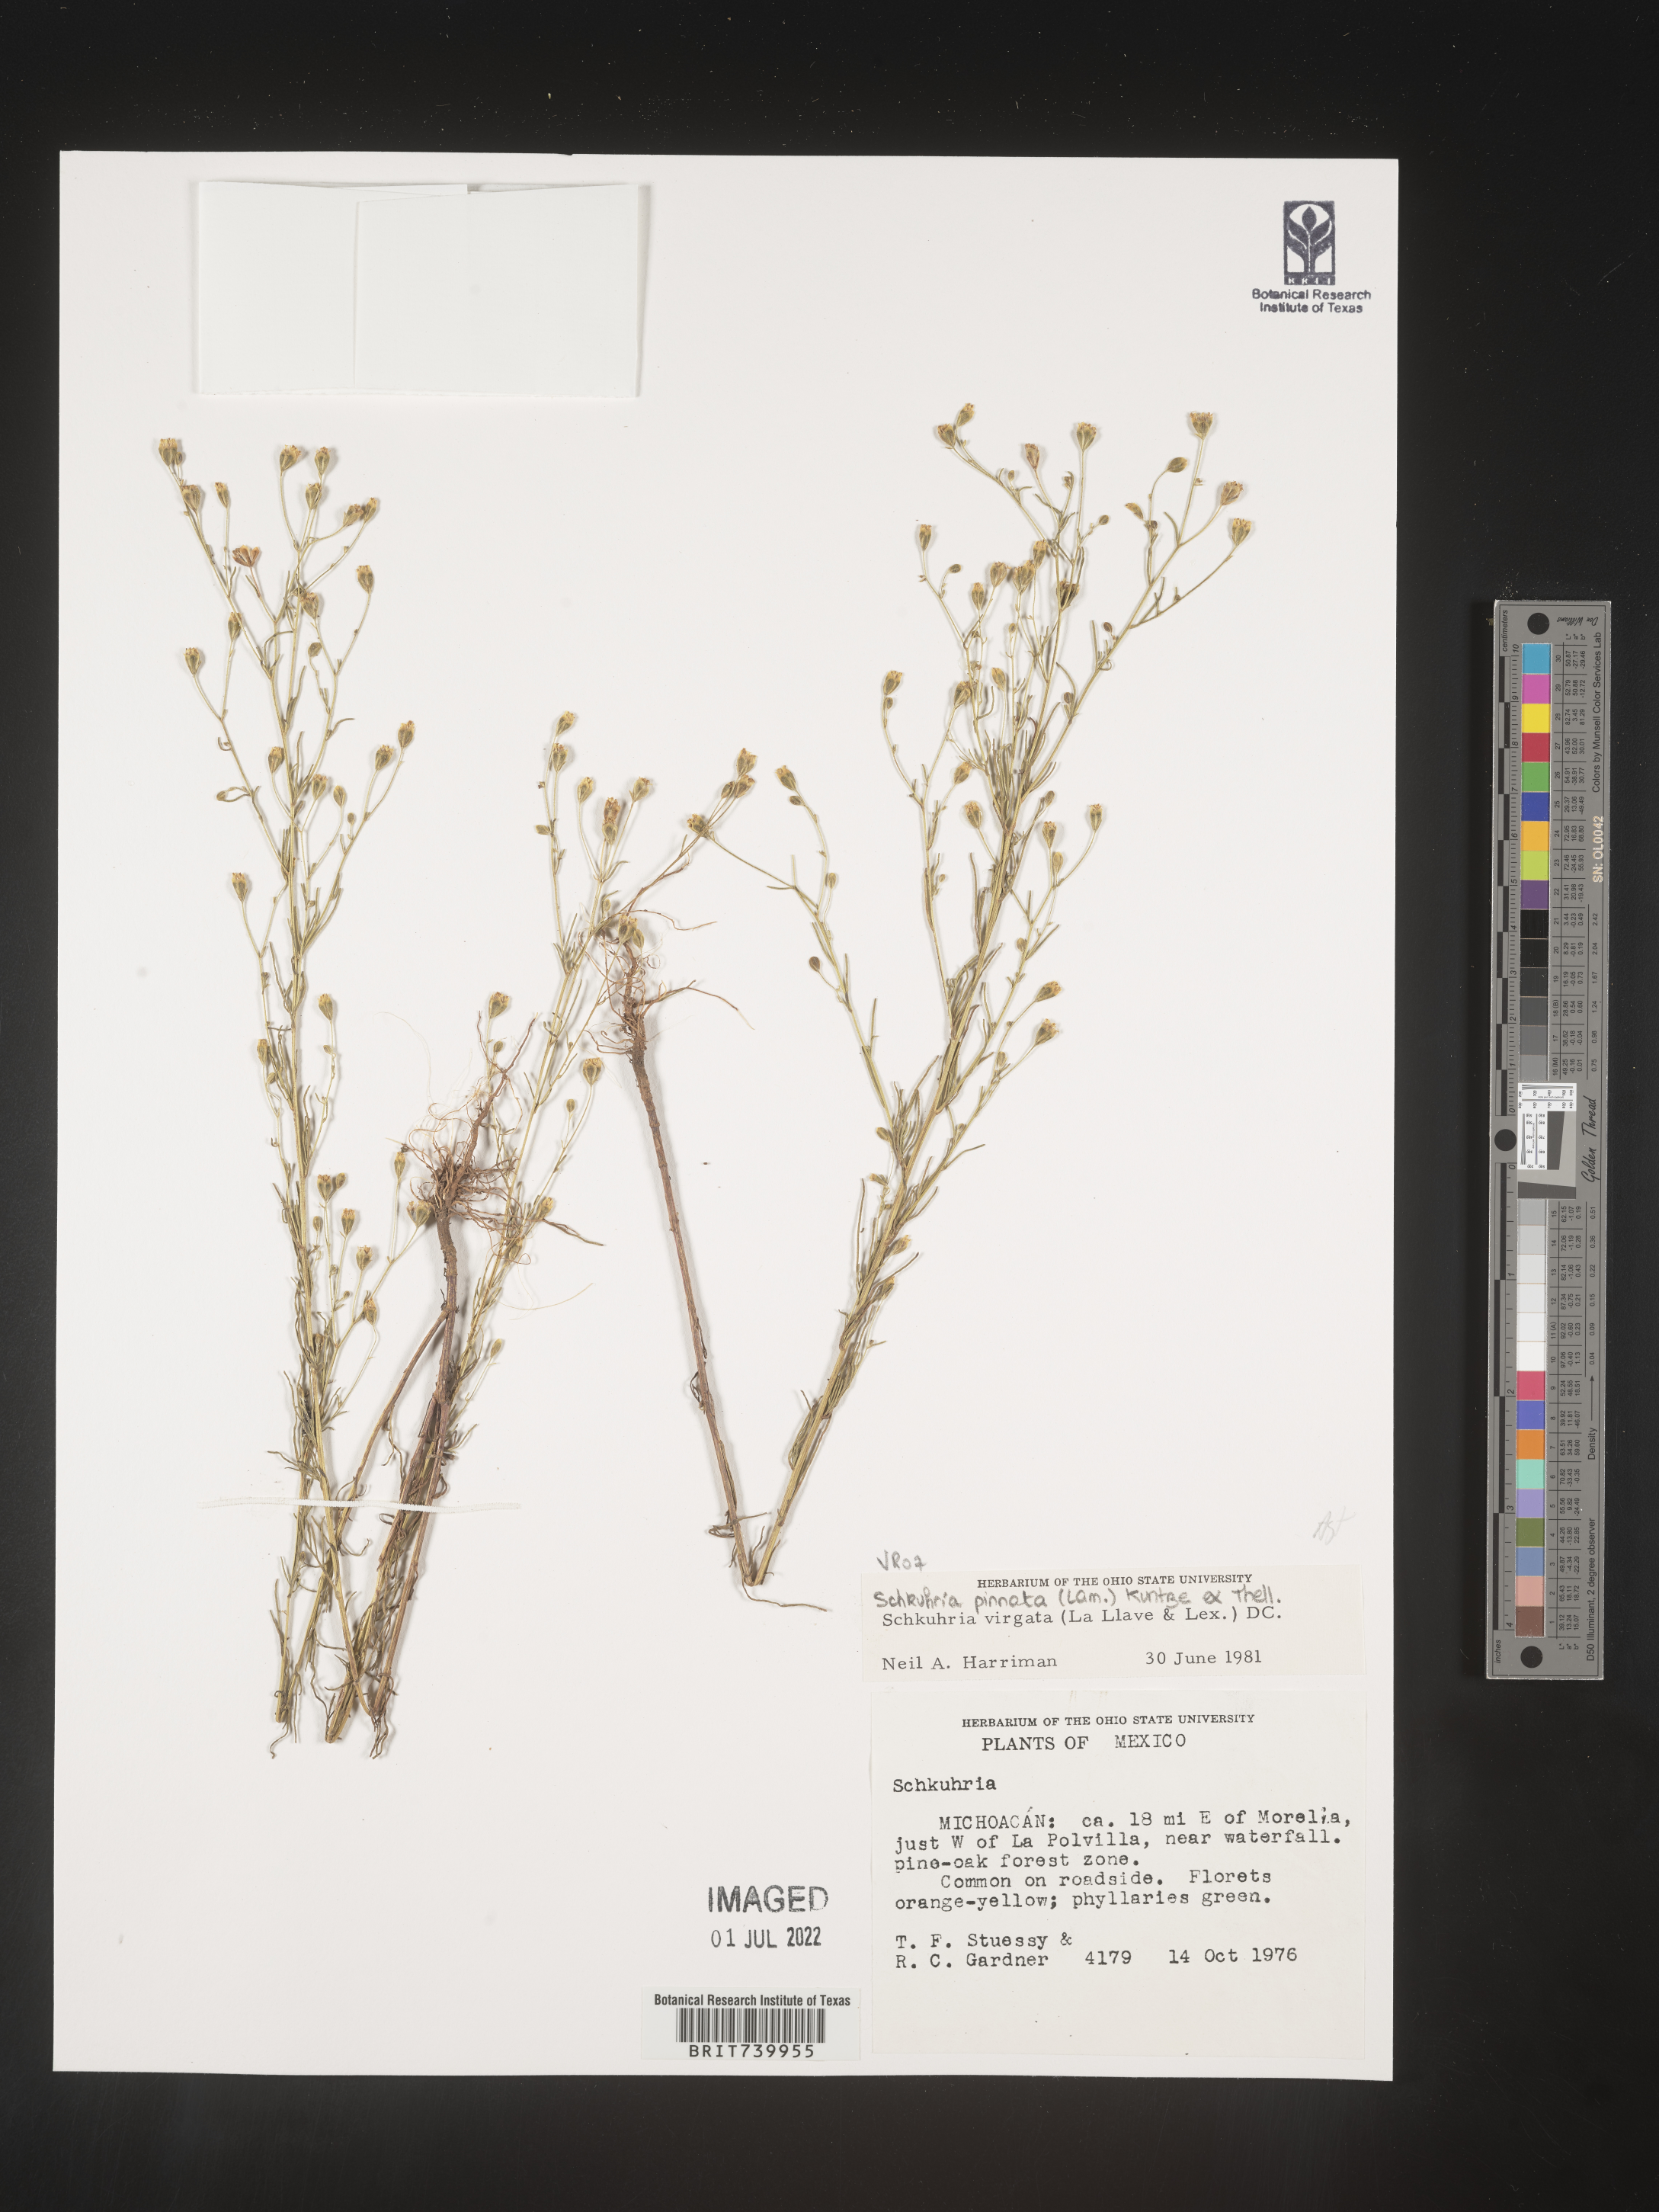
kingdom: Plantae
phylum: Tracheophyta
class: Magnoliopsida
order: Asterales
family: Asteraceae
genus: Schkuhria
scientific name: Schkuhria
